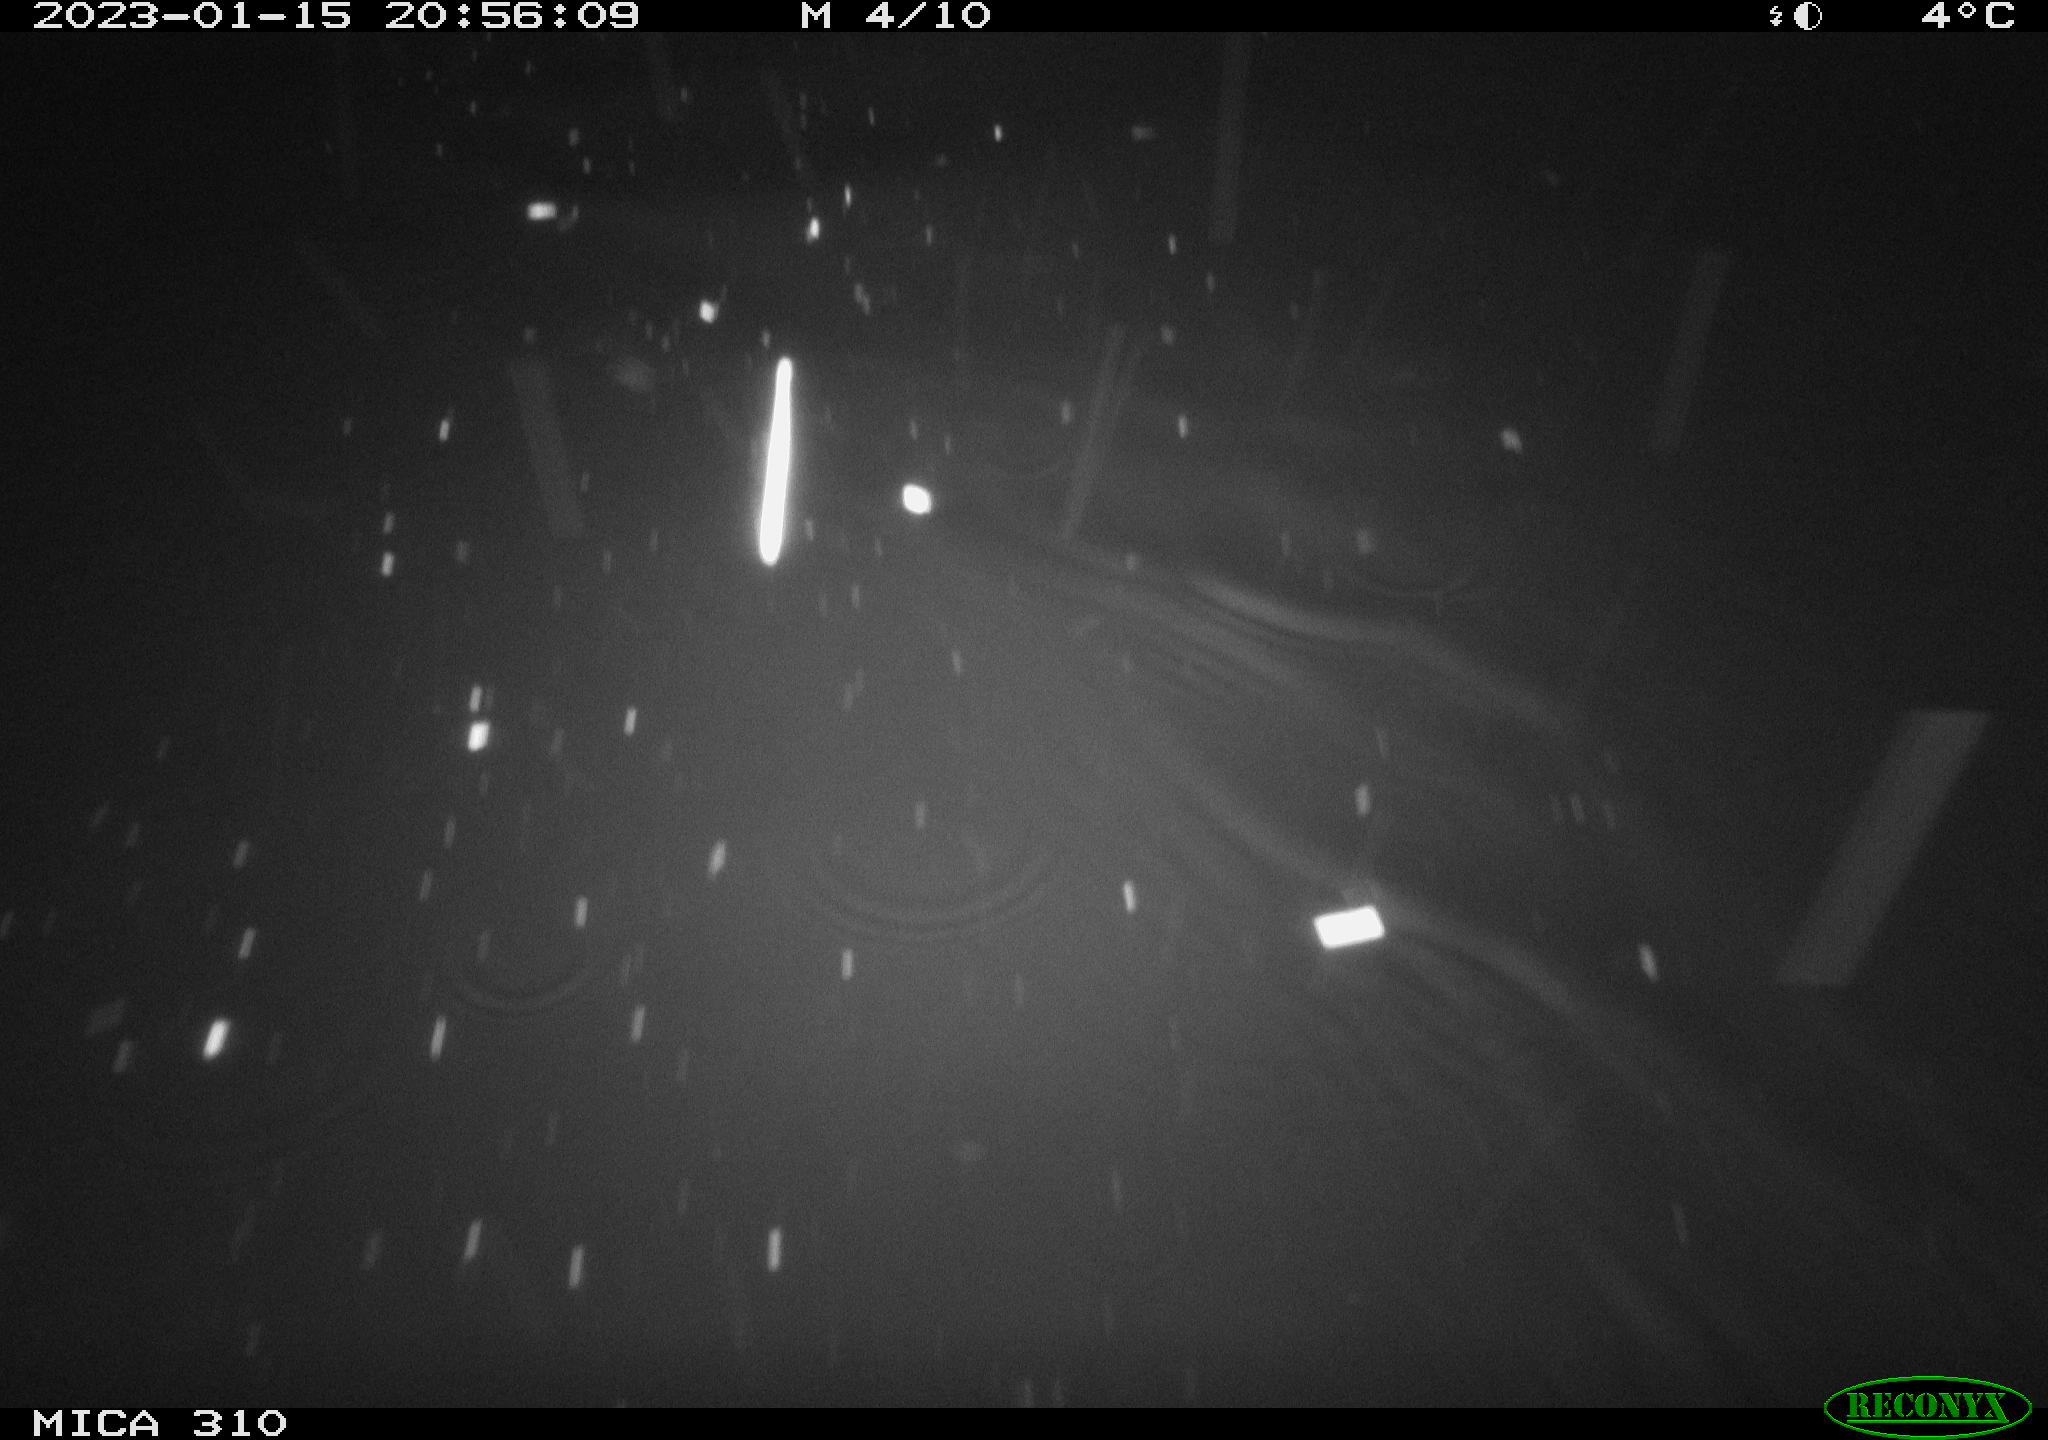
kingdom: Animalia
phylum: Chordata
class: Aves
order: Anseriformes
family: Anatidae
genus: Anas
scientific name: Anas
